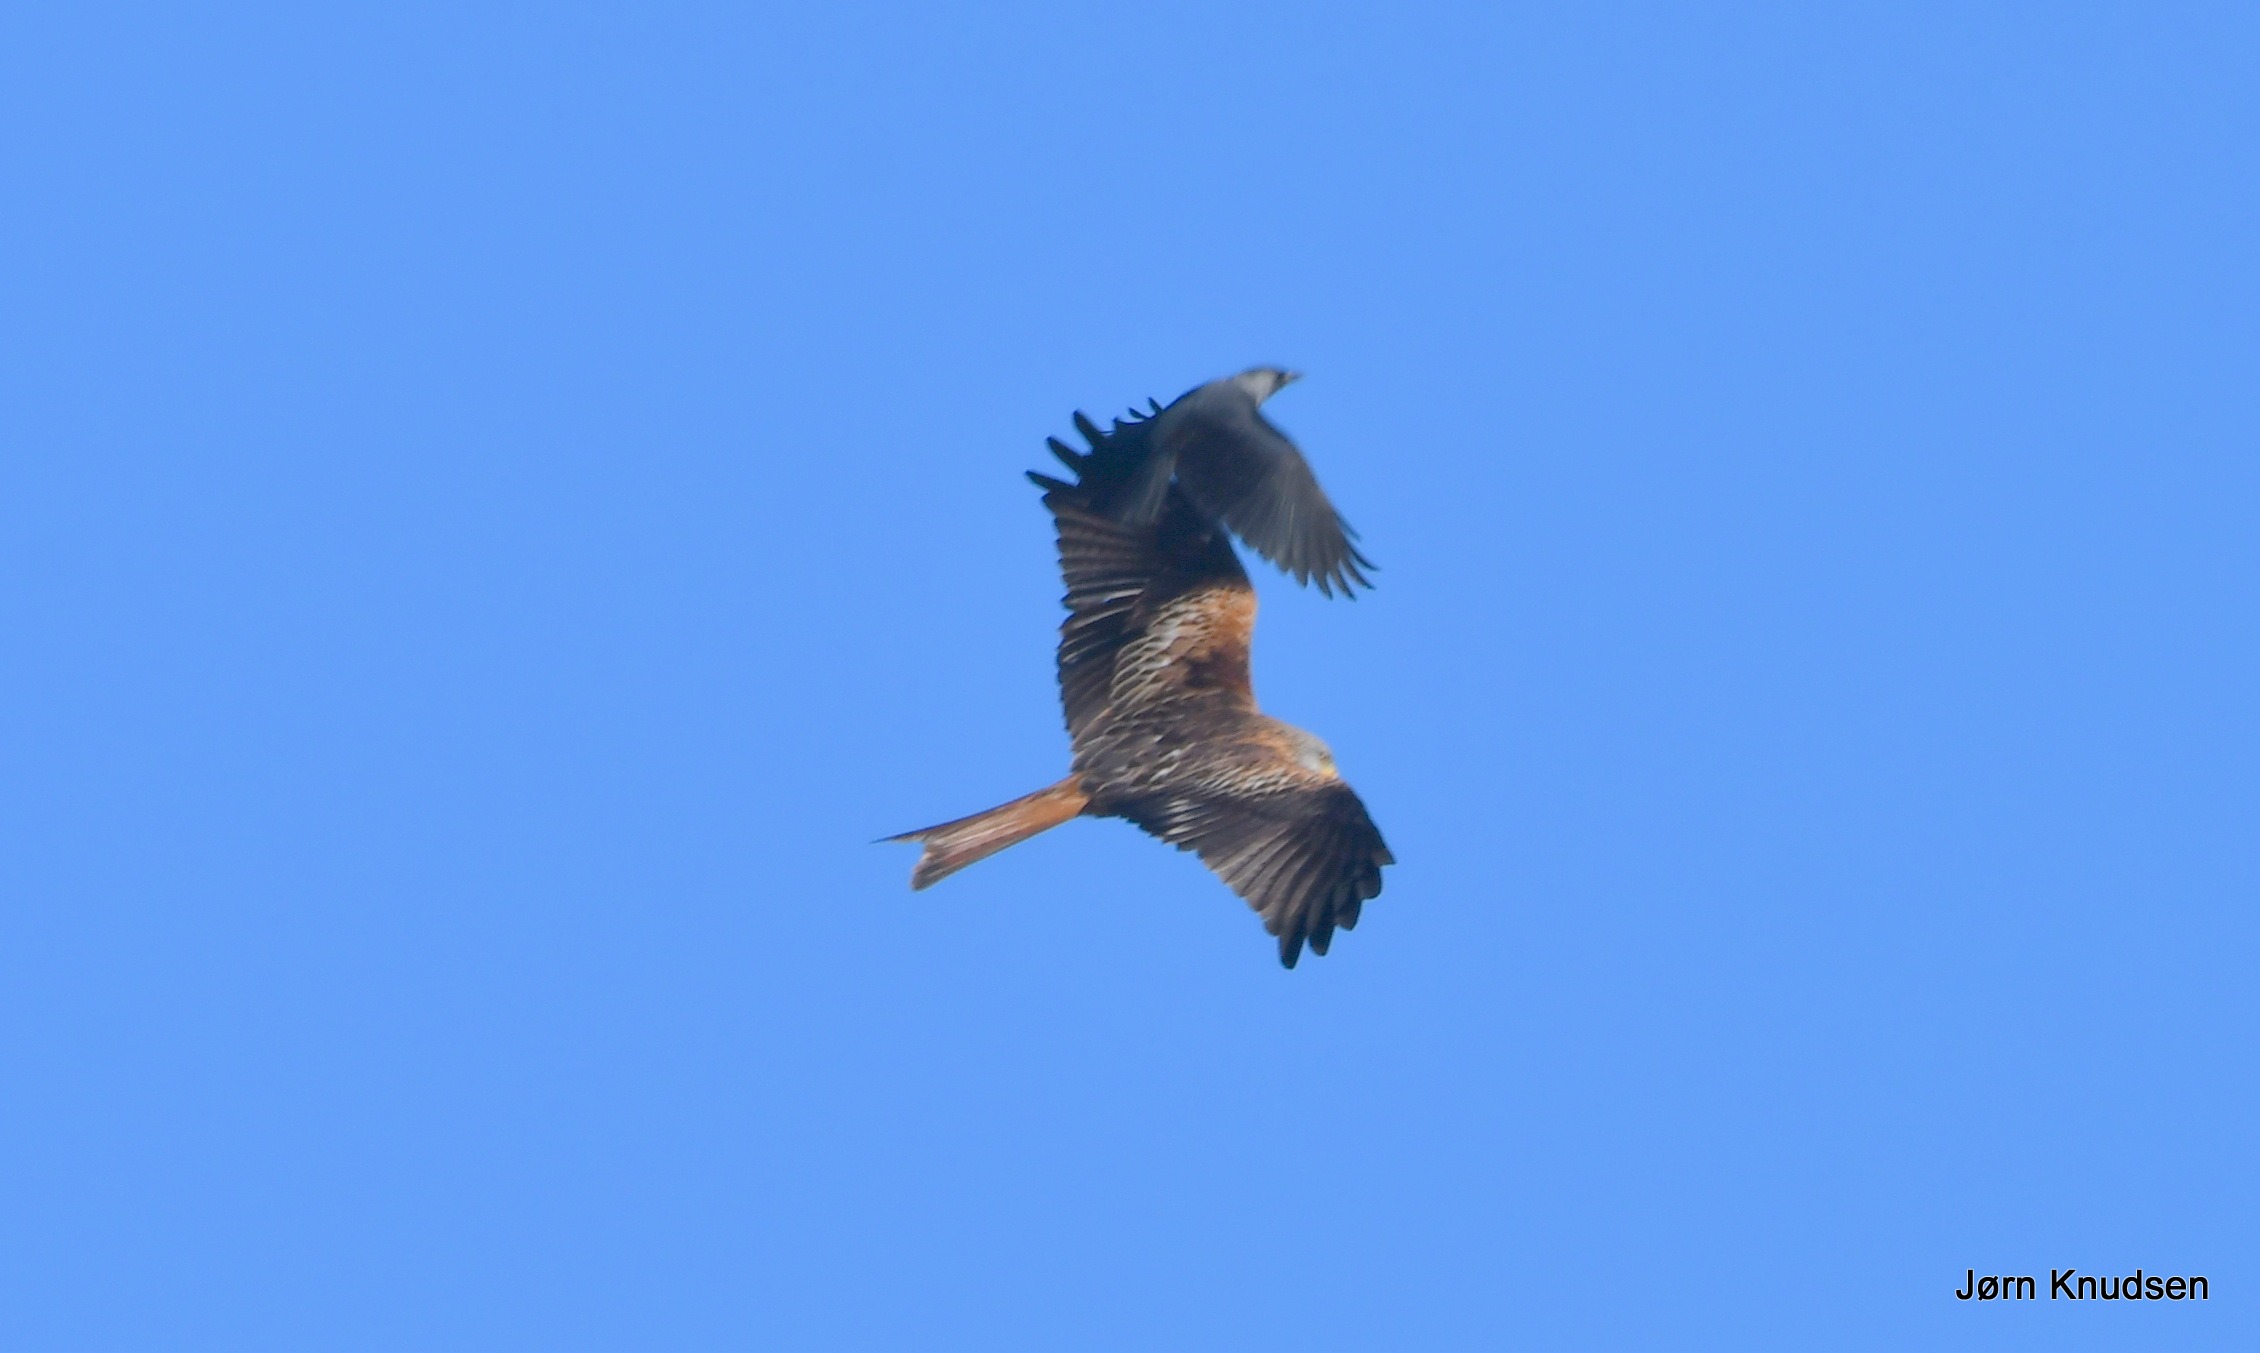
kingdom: Animalia
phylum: Chordata
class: Aves
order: Accipitriformes
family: Accipitridae
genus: Milvus
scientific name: Milvus milvus
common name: Rød glente
